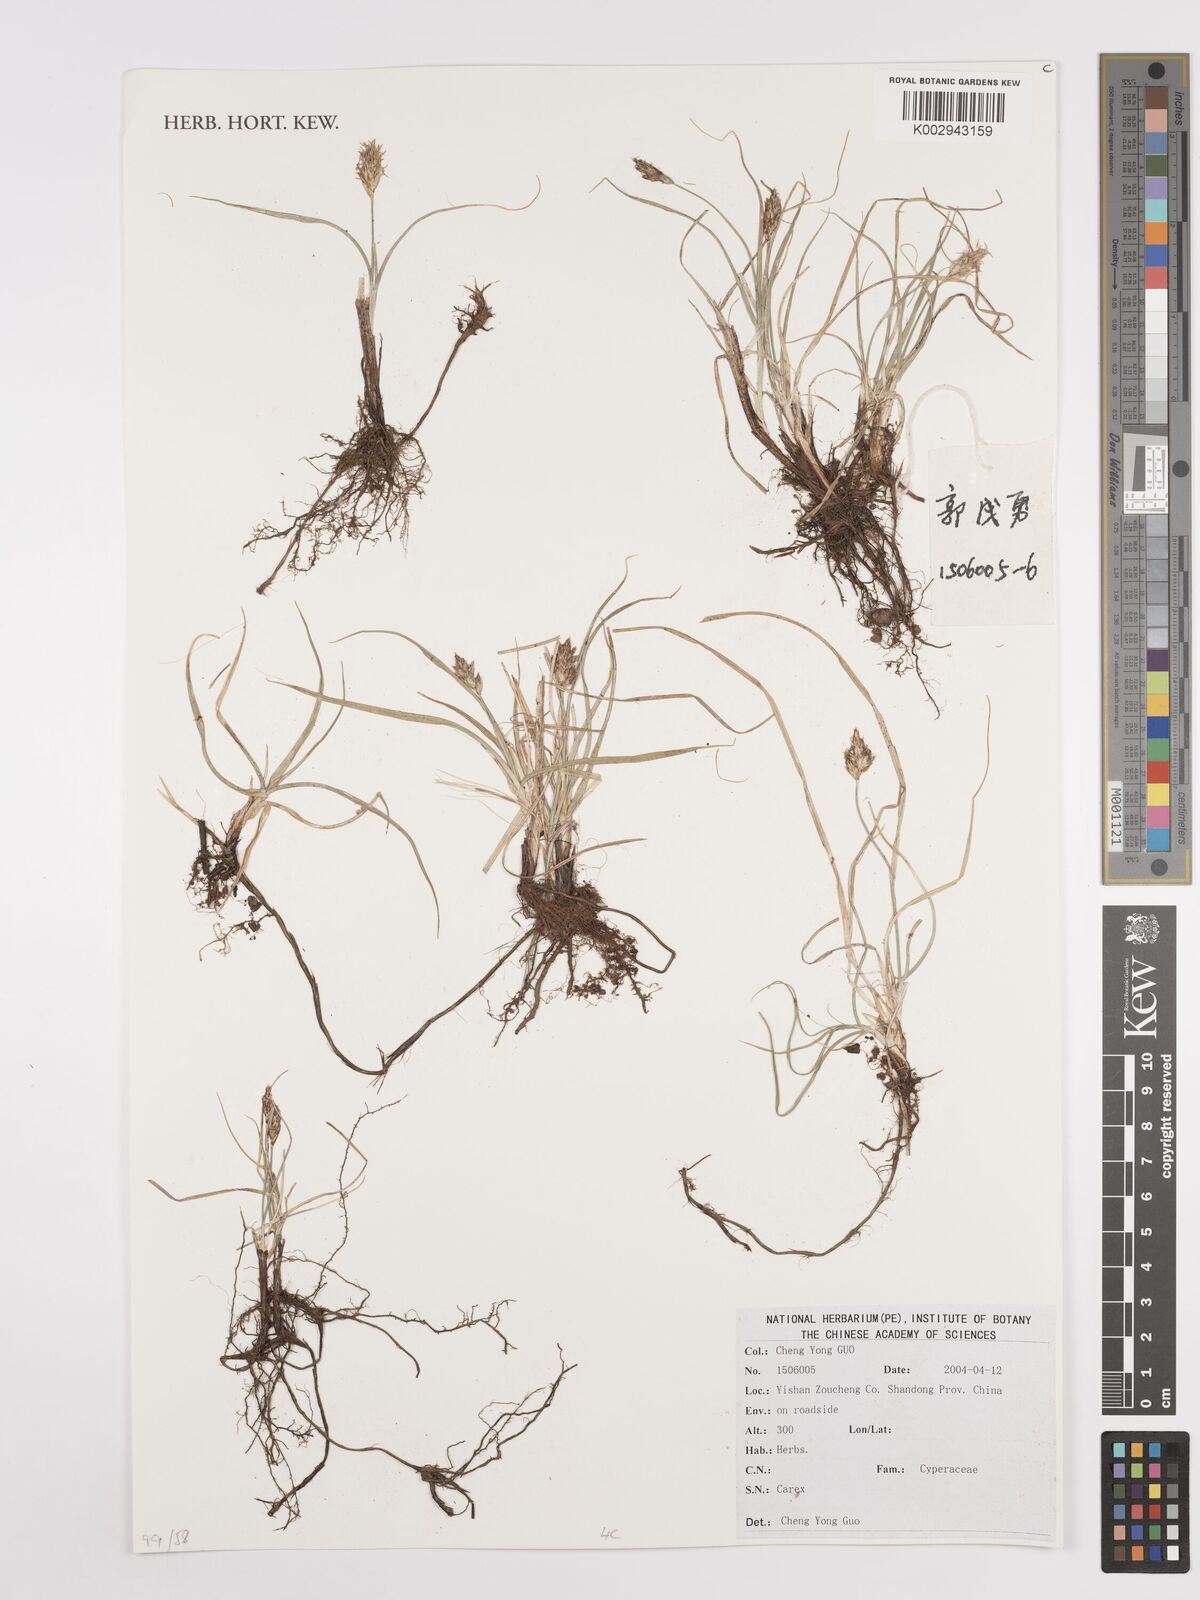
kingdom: Plantae
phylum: Tracheophyta
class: Liliopsida
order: Poales
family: Cyperaceae
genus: Carex
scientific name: Carex
